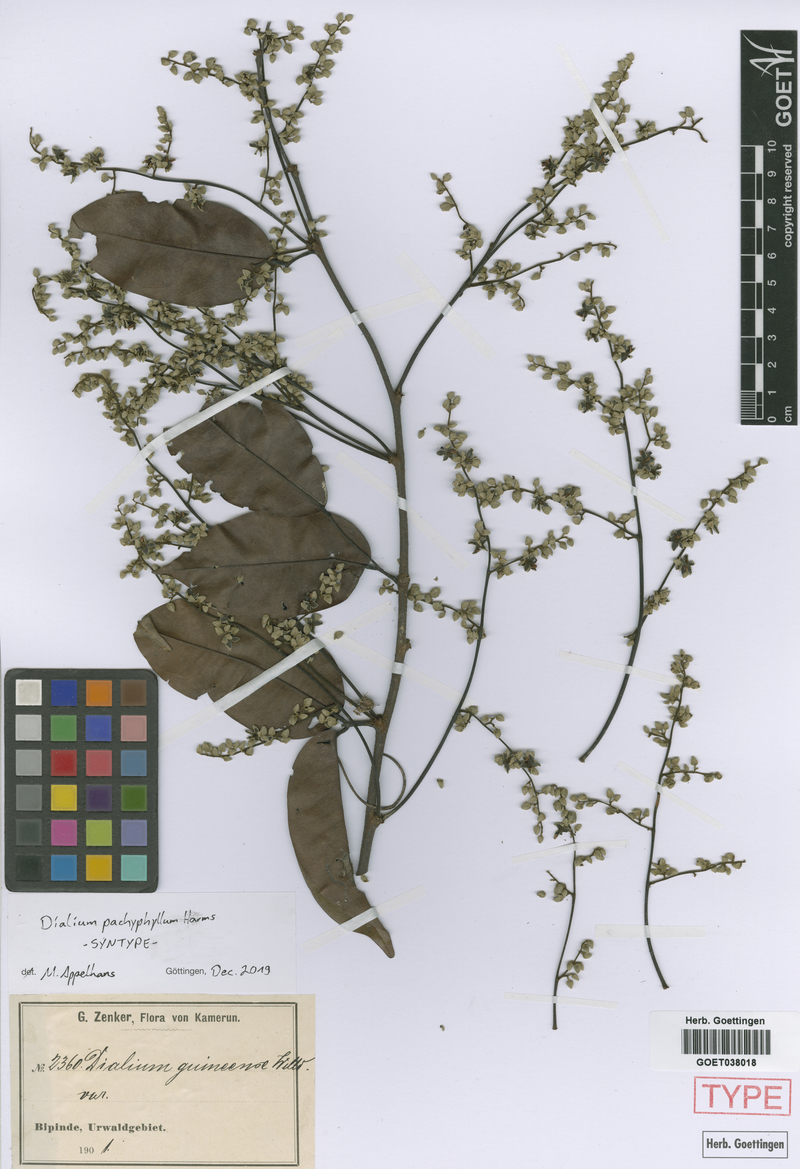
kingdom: Plantae
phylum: Tracheophyta
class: Magnoliopsida
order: Fabales
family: Fabaceae
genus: Dialium
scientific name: Dialium pachyphyllum
